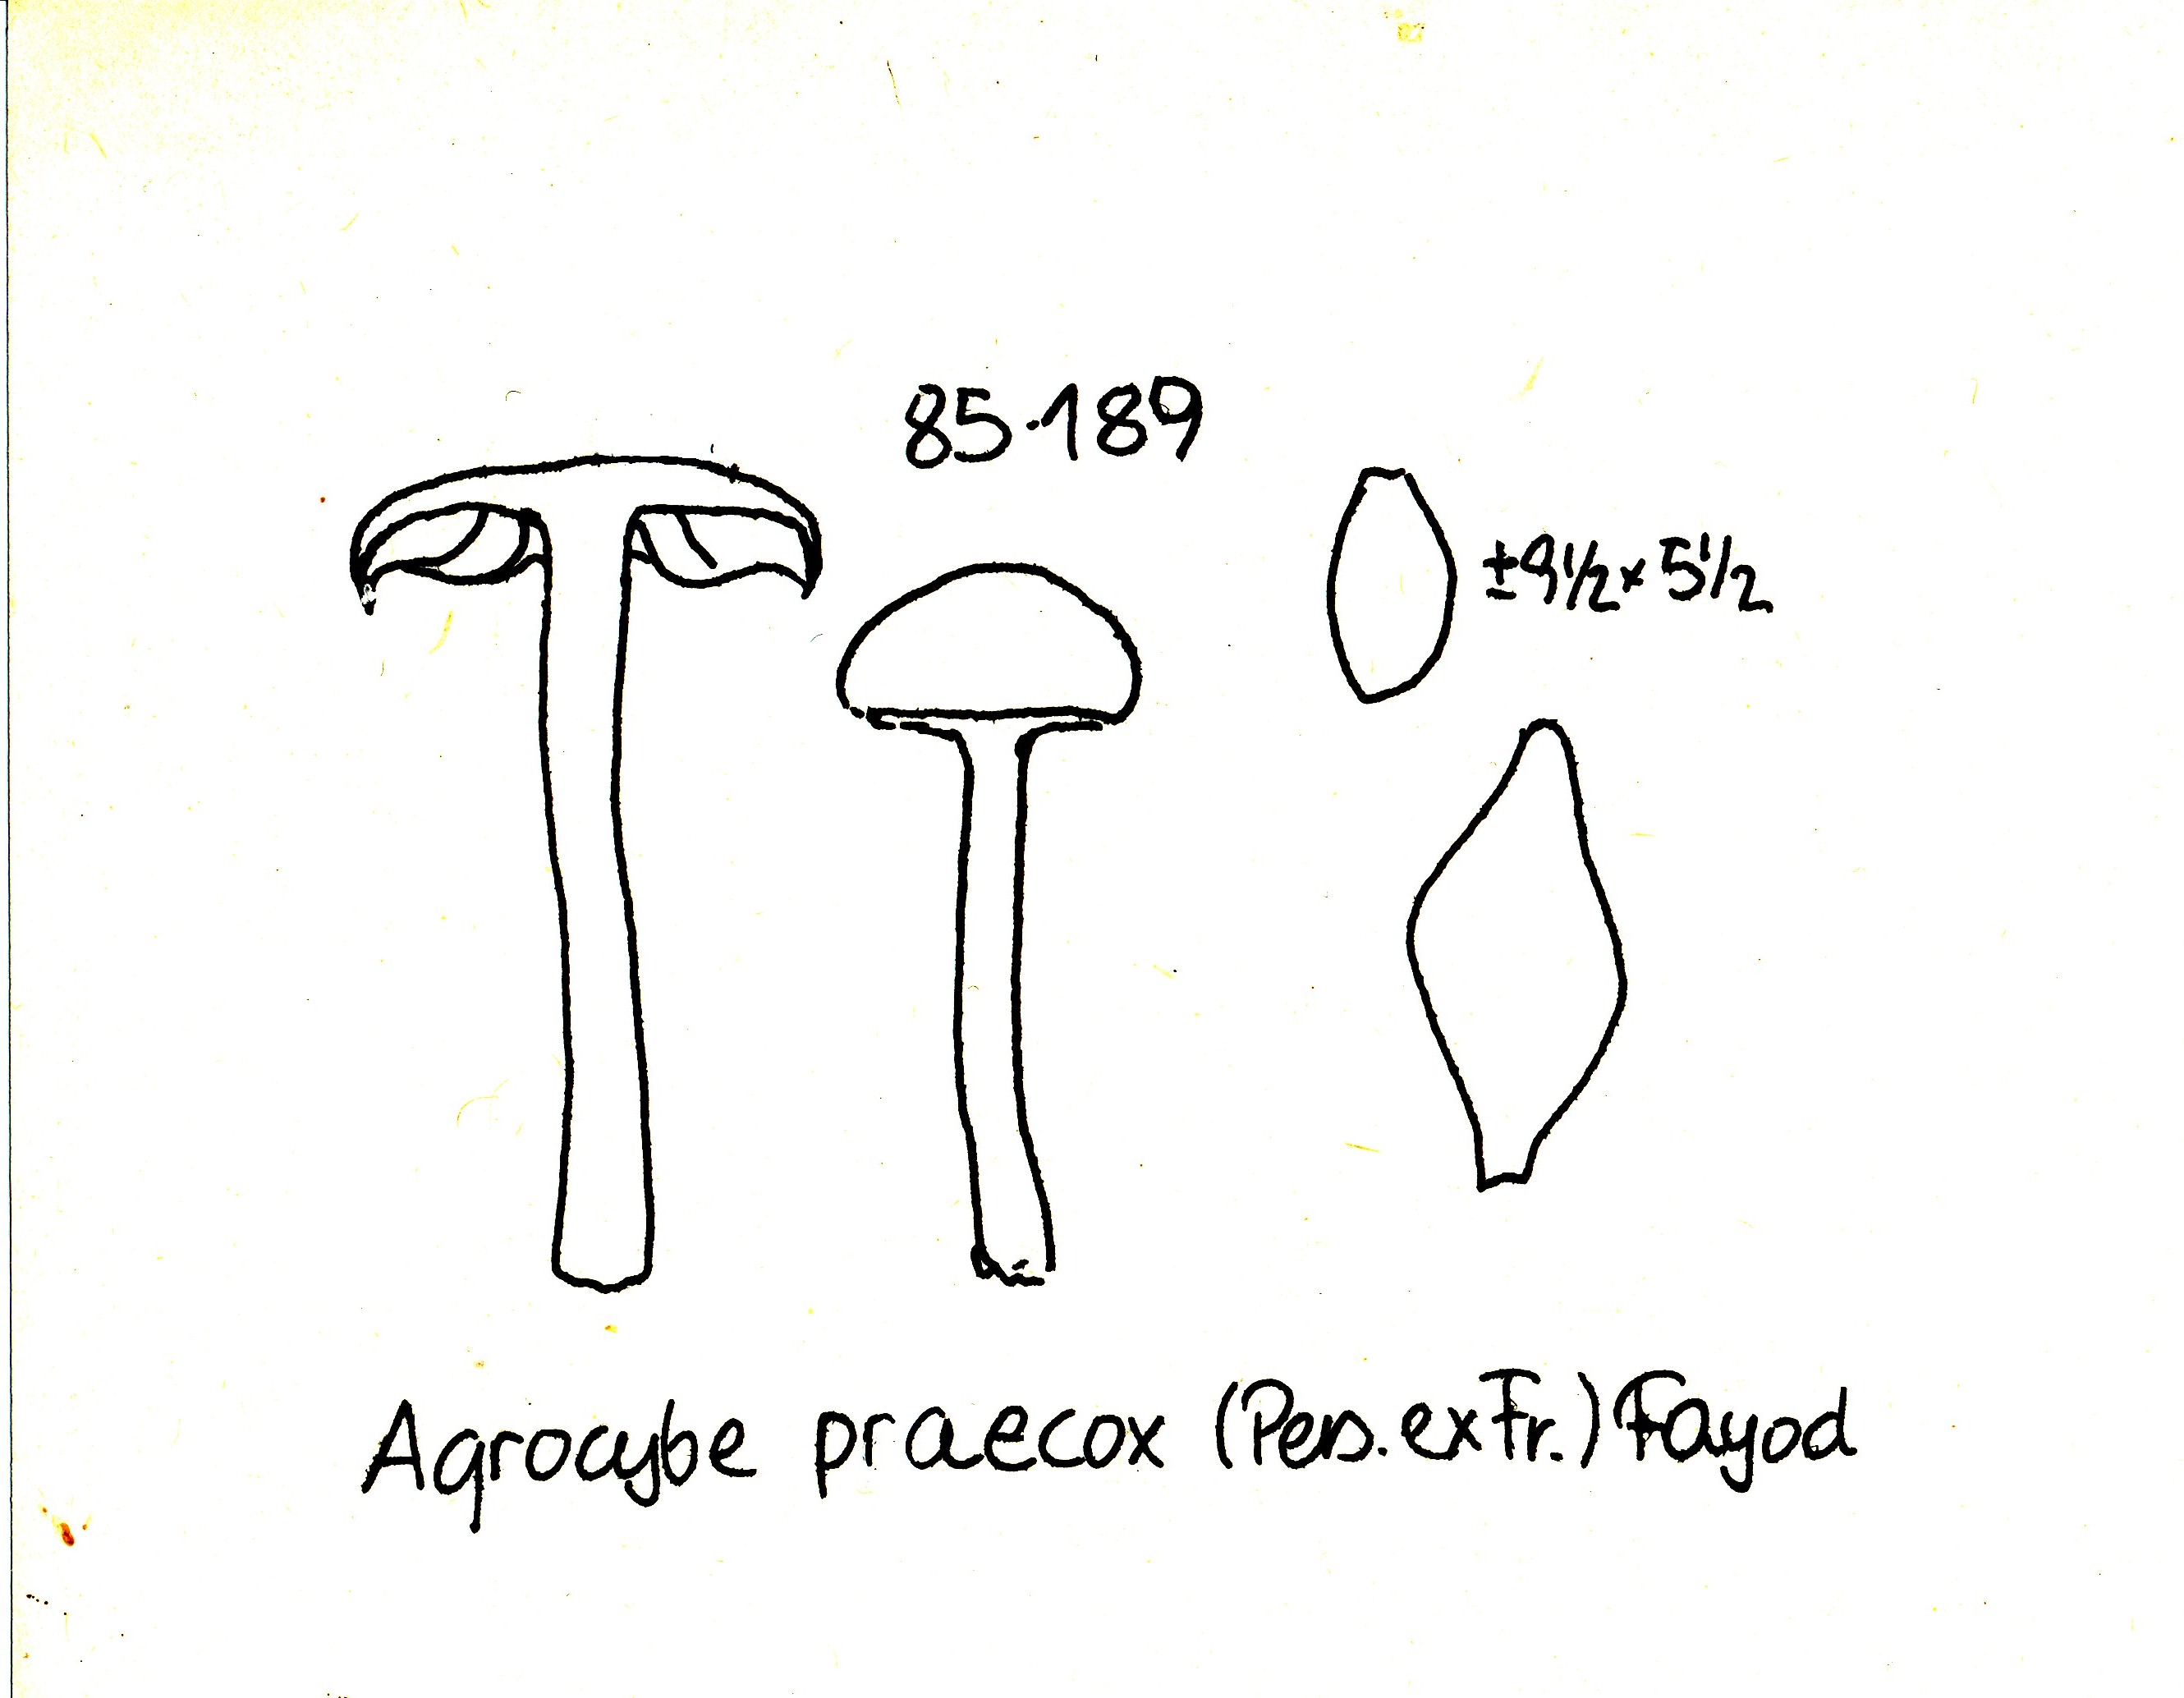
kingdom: Fungi
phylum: Basidiomycota
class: Agaricomycetes
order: Agaricales
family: Strophariaceae
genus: Agrocybe
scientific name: Agrocybe praecox
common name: tidlig agerhat
